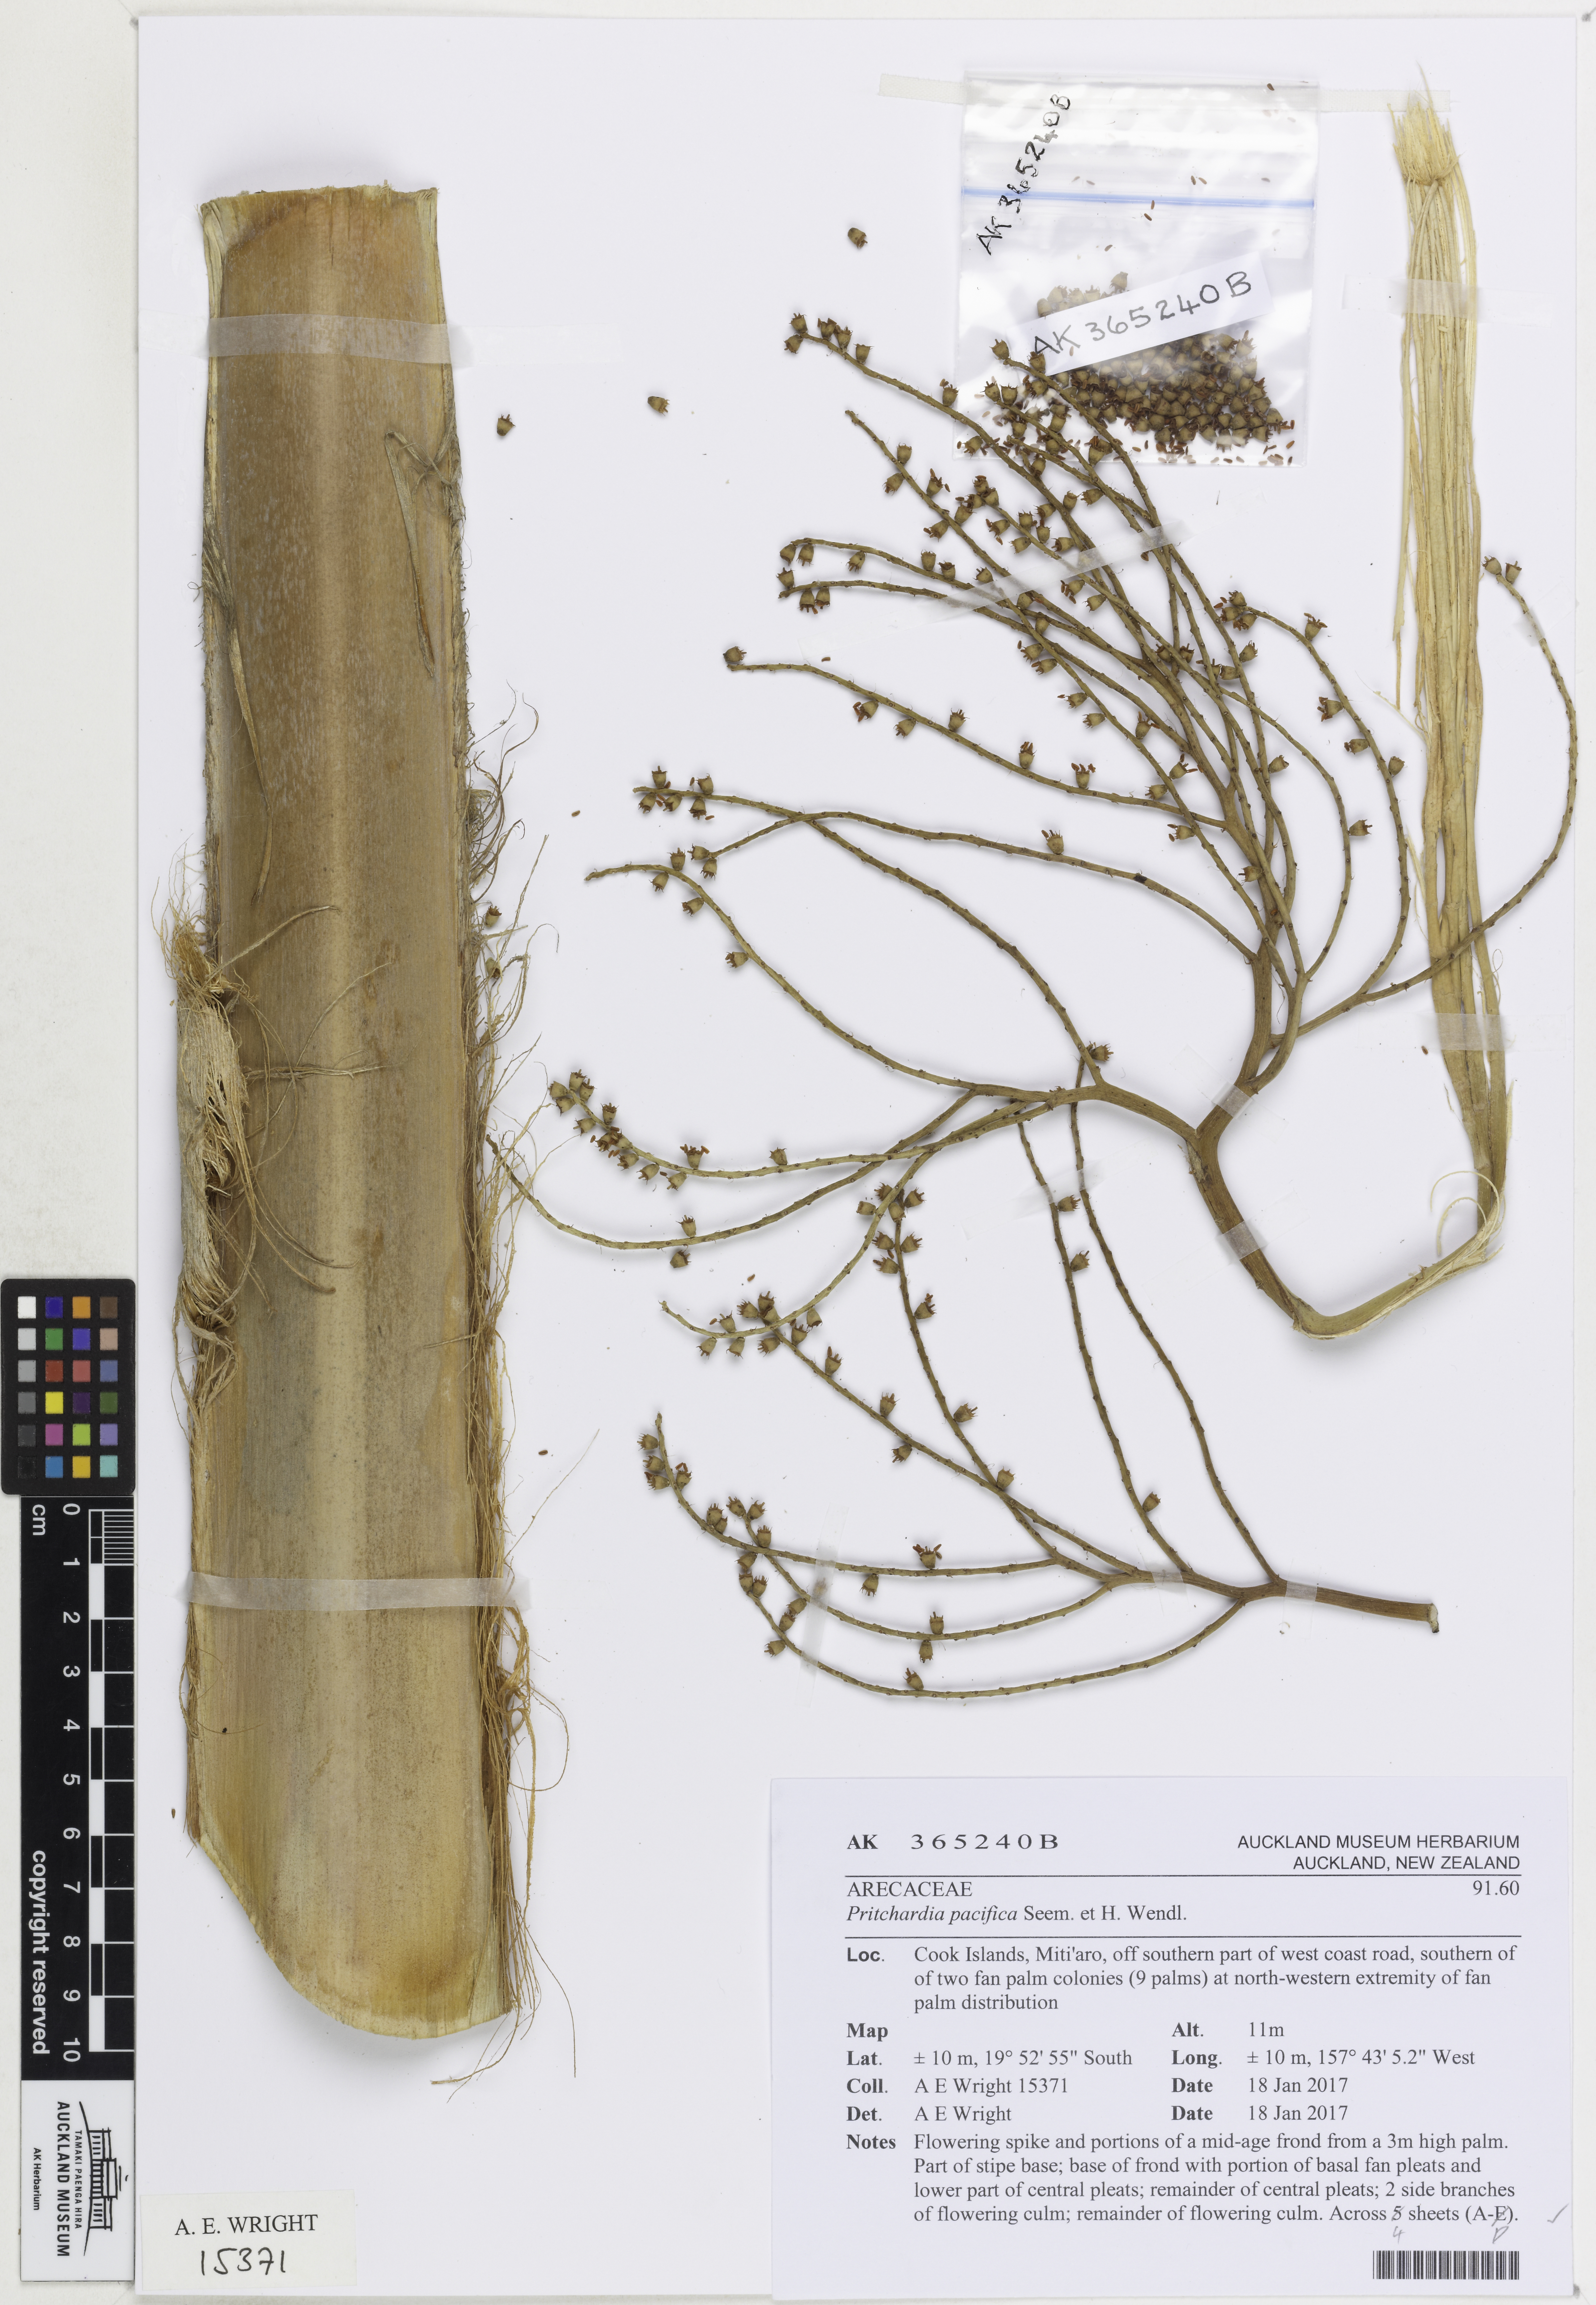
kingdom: Plantae
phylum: Tracheophyta
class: Liliopsida
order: Arecales
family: Arecaceae
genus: Pritchardia
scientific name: Pritchardia pacifica
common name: Fiji fan palm
